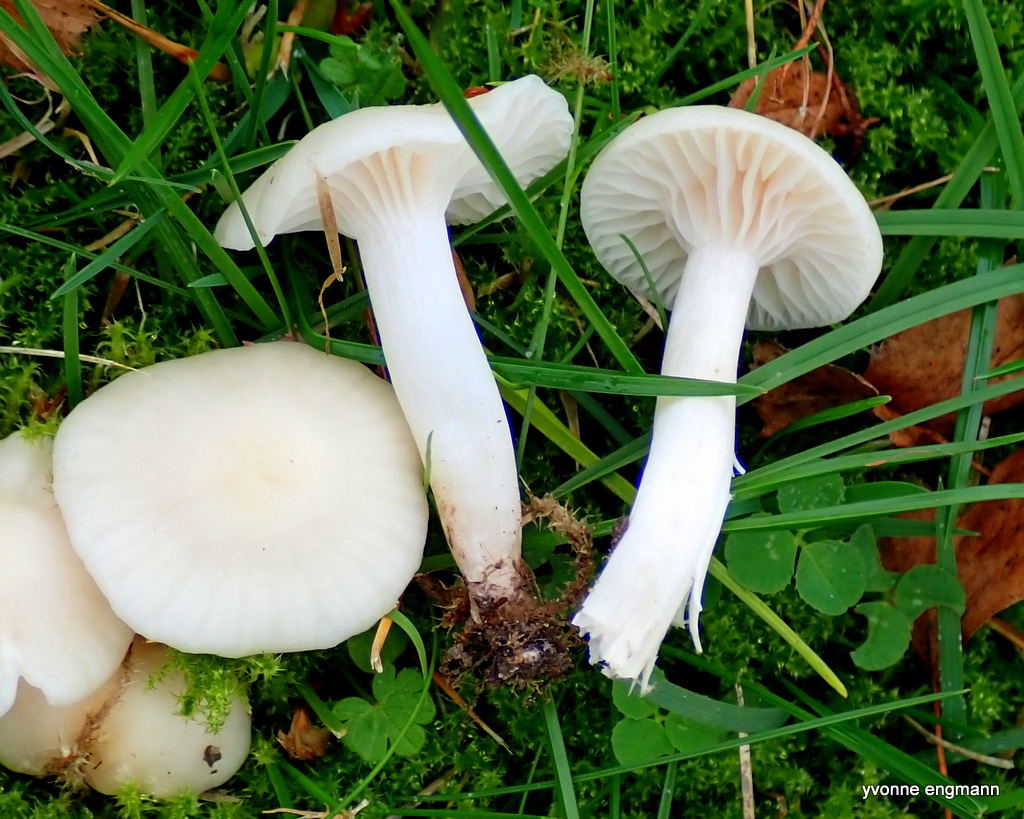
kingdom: Fungi
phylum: Basidiomycota
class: Agaricomycetes
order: Agaricales
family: Hygrophoraceae
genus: Cuphophyllus
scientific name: Cuphophyllus russocoriaceus
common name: ruslæder-vokshat
